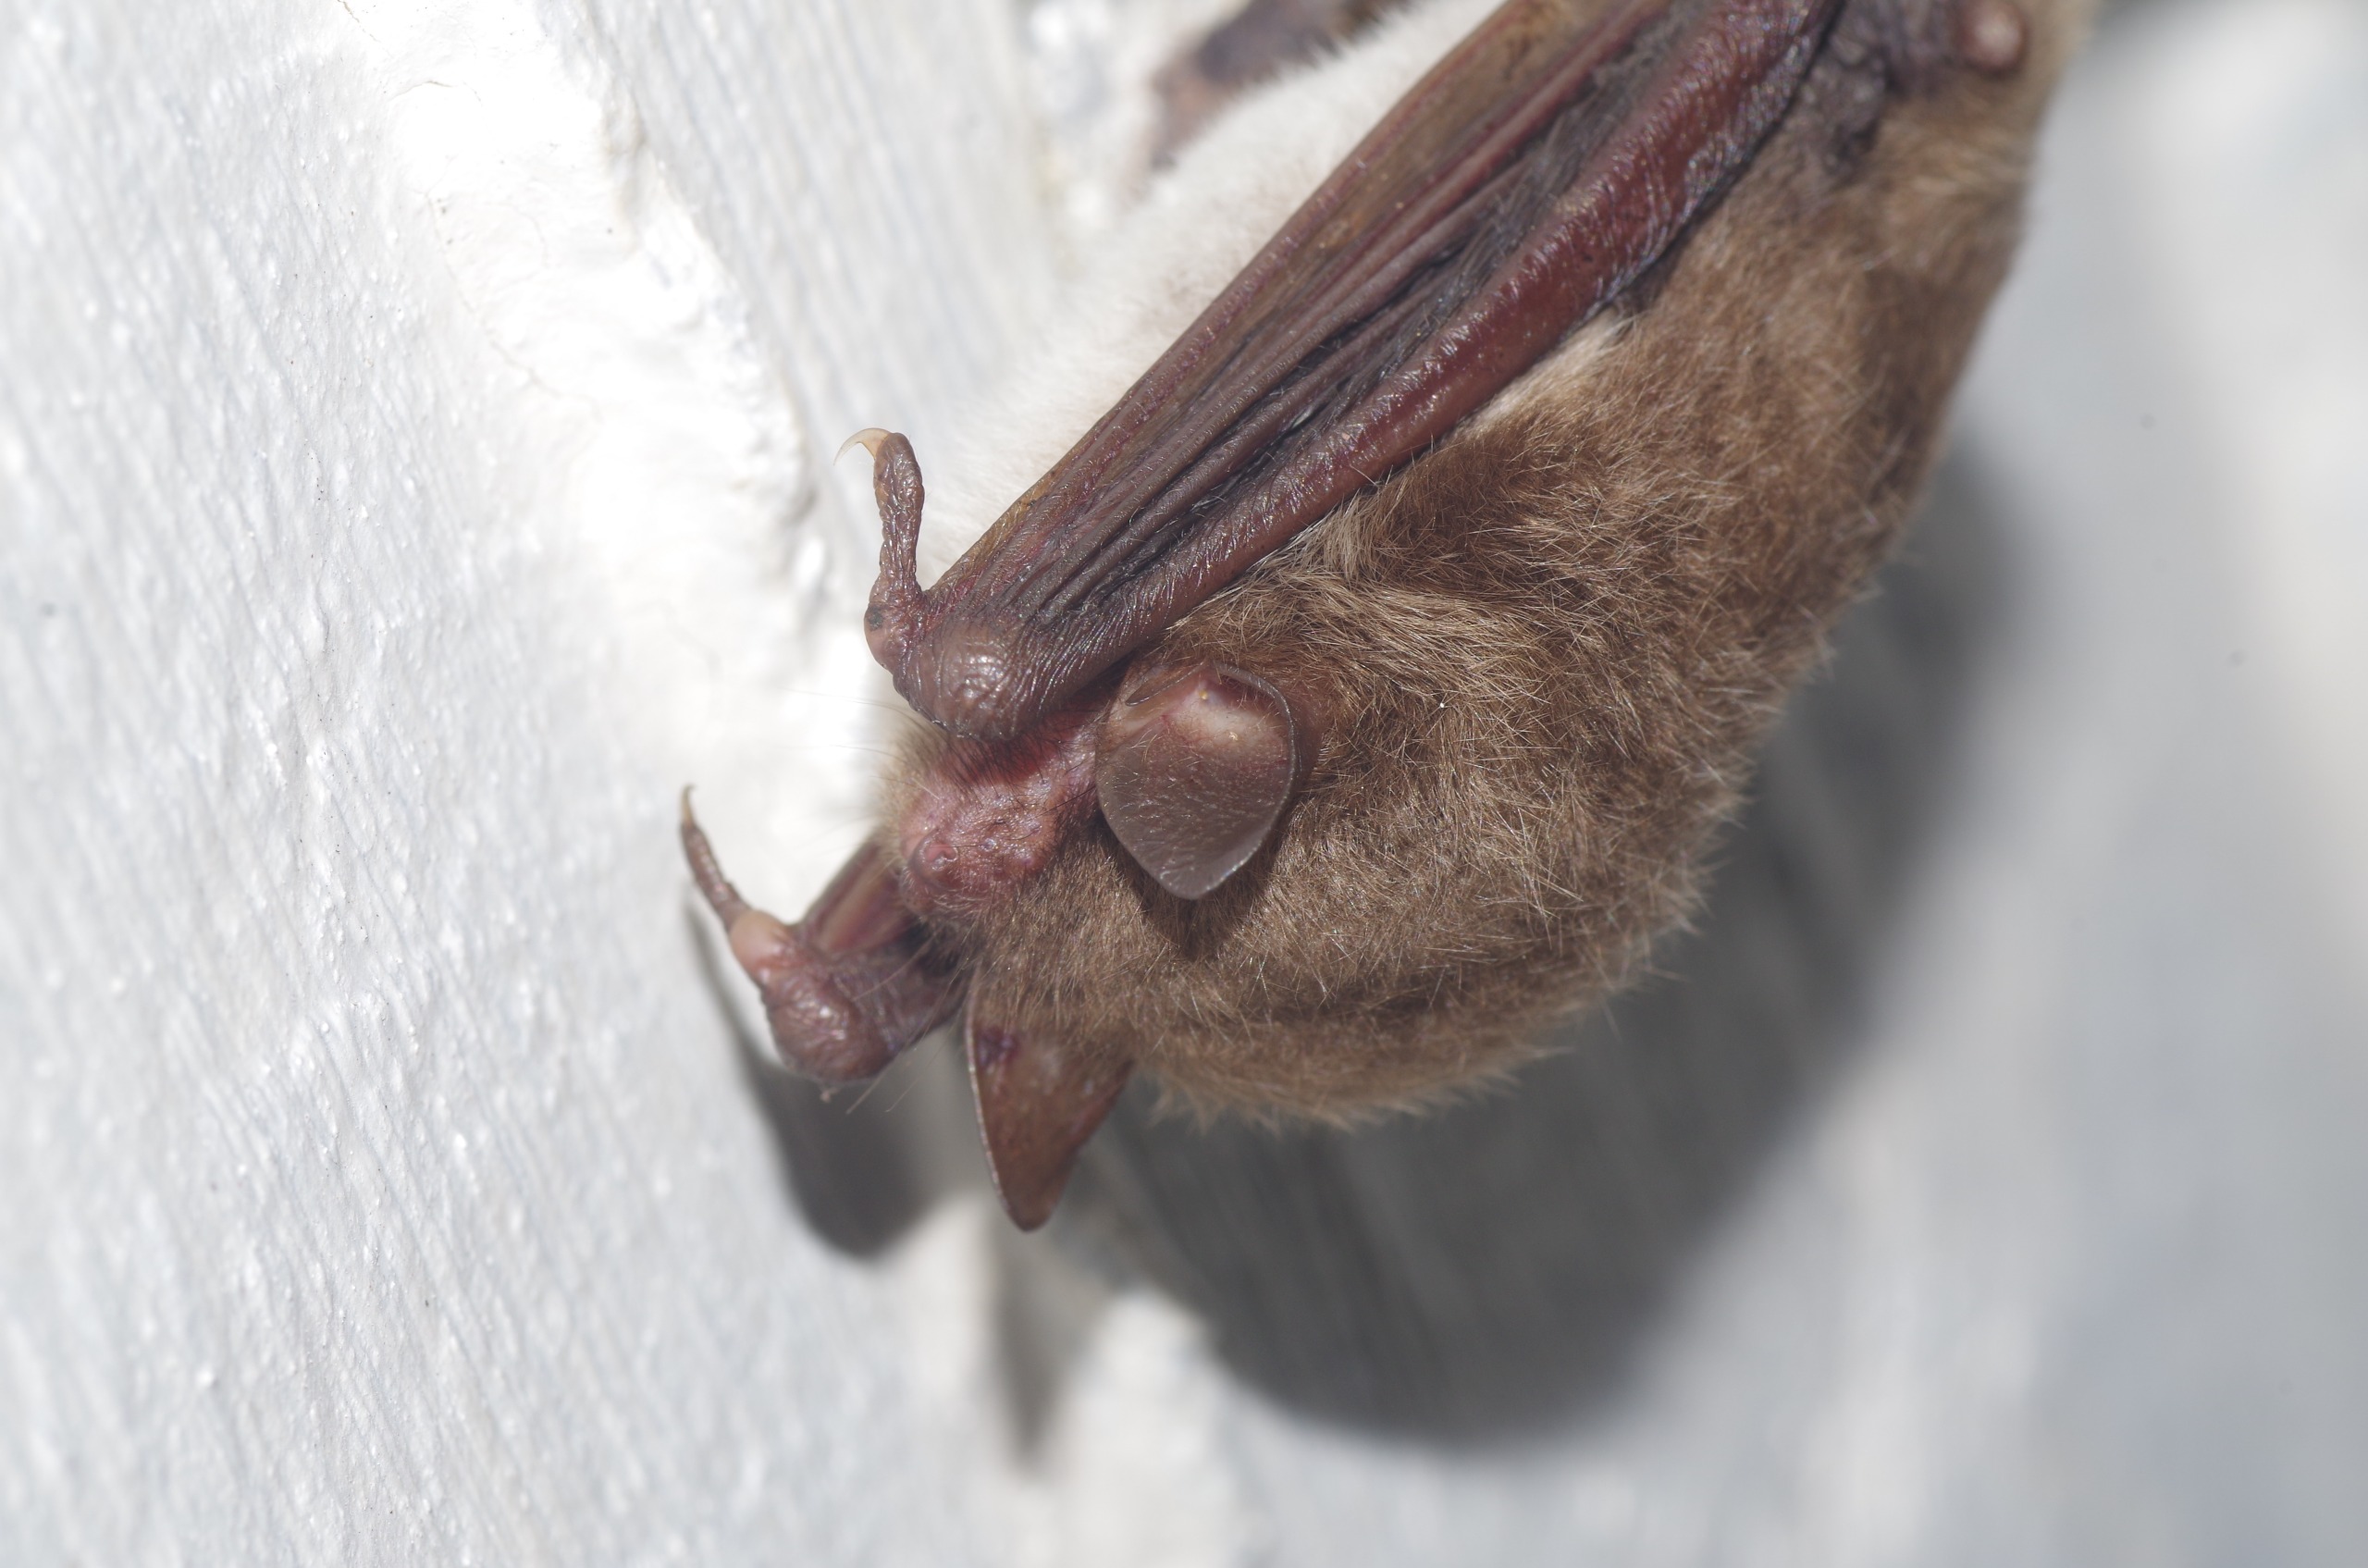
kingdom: Animalia
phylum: Chordata
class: Mammalia
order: Chiroptera
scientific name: Chiroptera
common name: Flagermus
